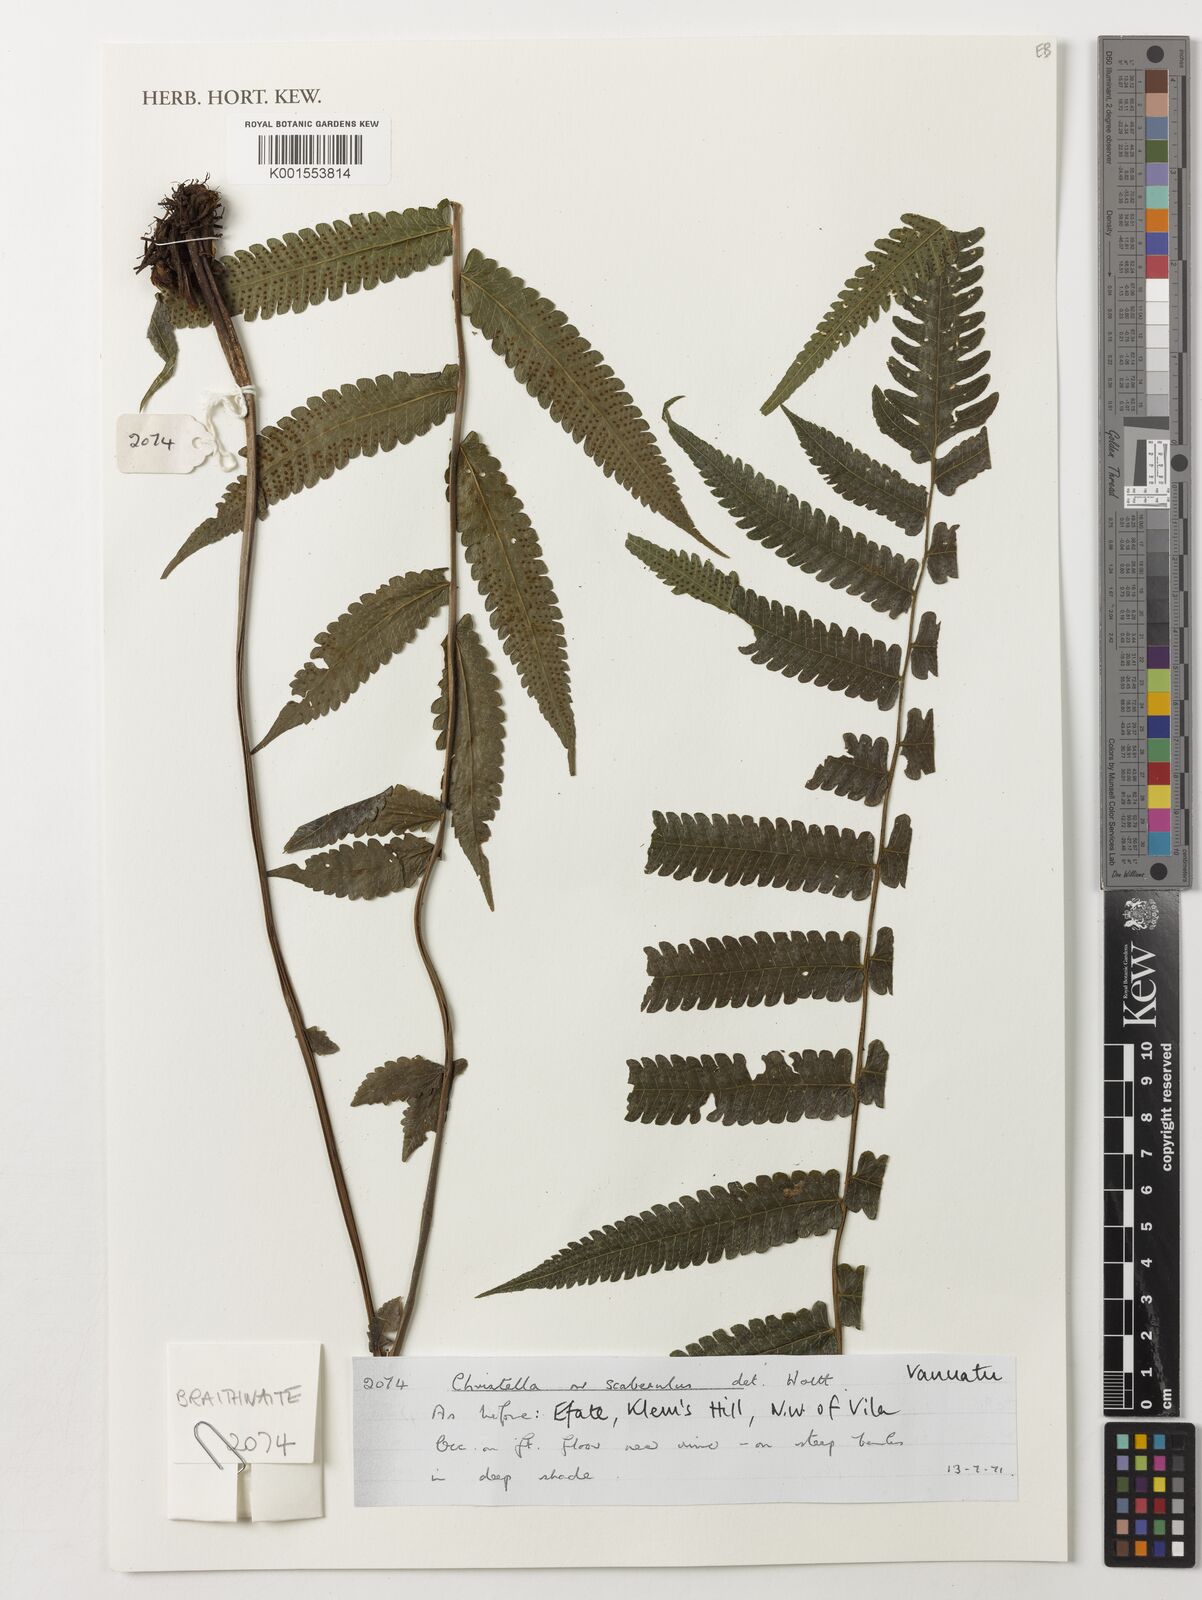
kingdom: Plantae
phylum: Tracheophyta
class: Polypodiopsida
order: Polypodiales
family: Thelypteridaceae
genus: Christella
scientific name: Christella scaberula
